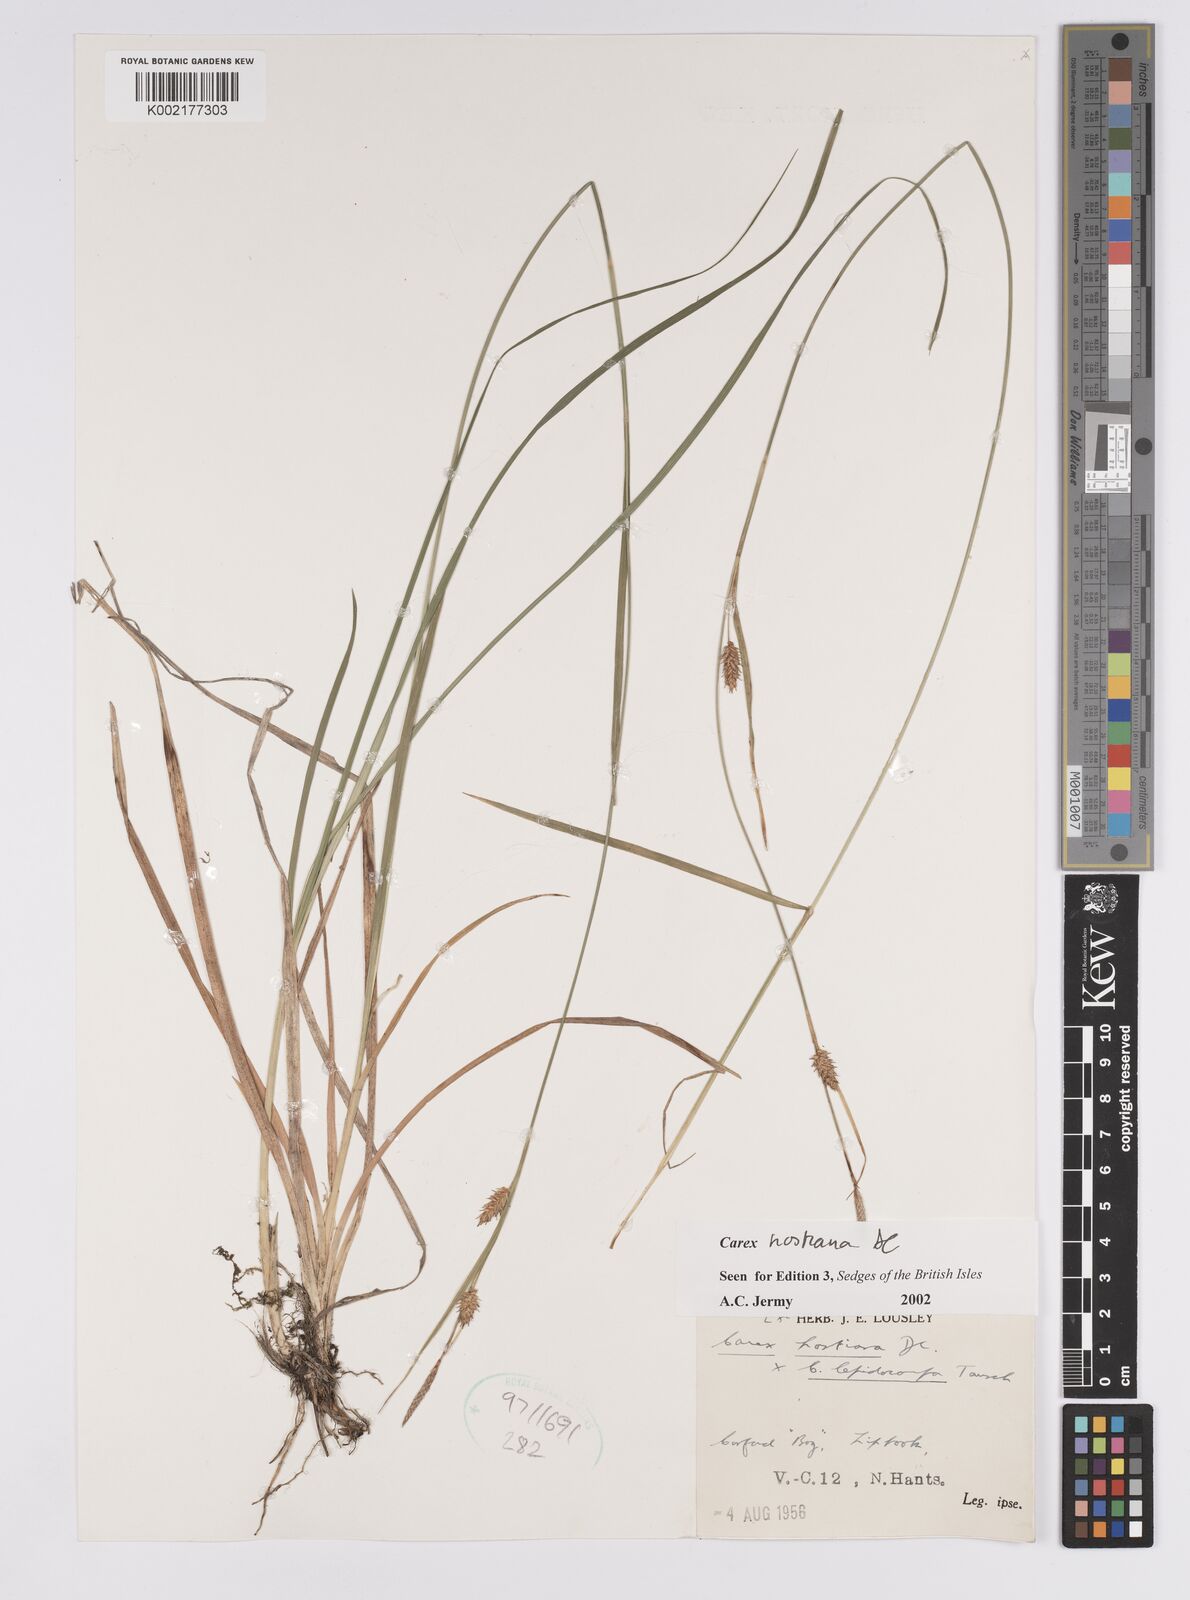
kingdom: Plantae
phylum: Tracheophyta
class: Liliopsida
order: Poales
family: Cyperaceae
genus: Carex
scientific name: Carex hostiana
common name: Tawny sedge
